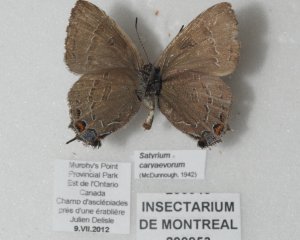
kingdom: Animalia
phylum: Arthropoda
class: Insecta
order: Lepidoptera
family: Lycaenidae
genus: Satyrium
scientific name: Satyrium calanus
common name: Banded Hairstreak
